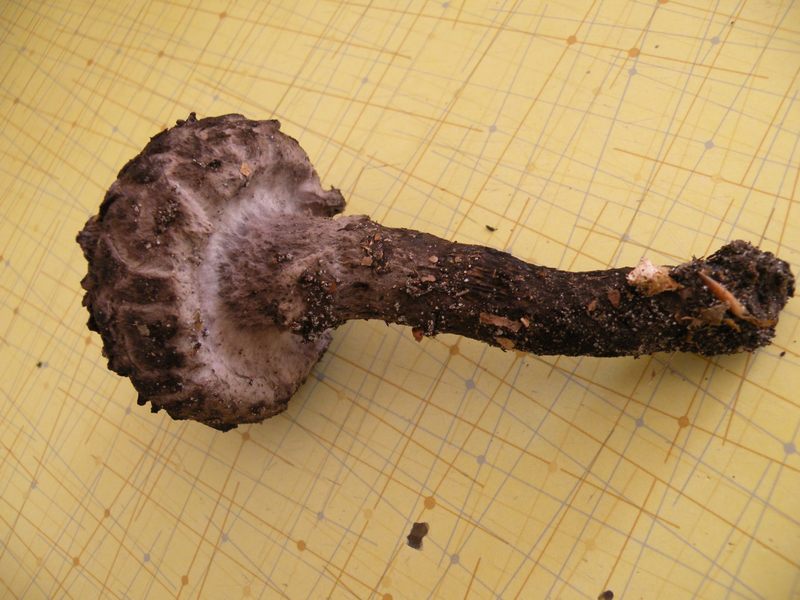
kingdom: Fungi
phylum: Basidiomycota
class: Agaricomycetes
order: Boletales
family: Boletaceae
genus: Strobilomyces
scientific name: Strobilomyces strobilaceus
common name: koglerørhat
